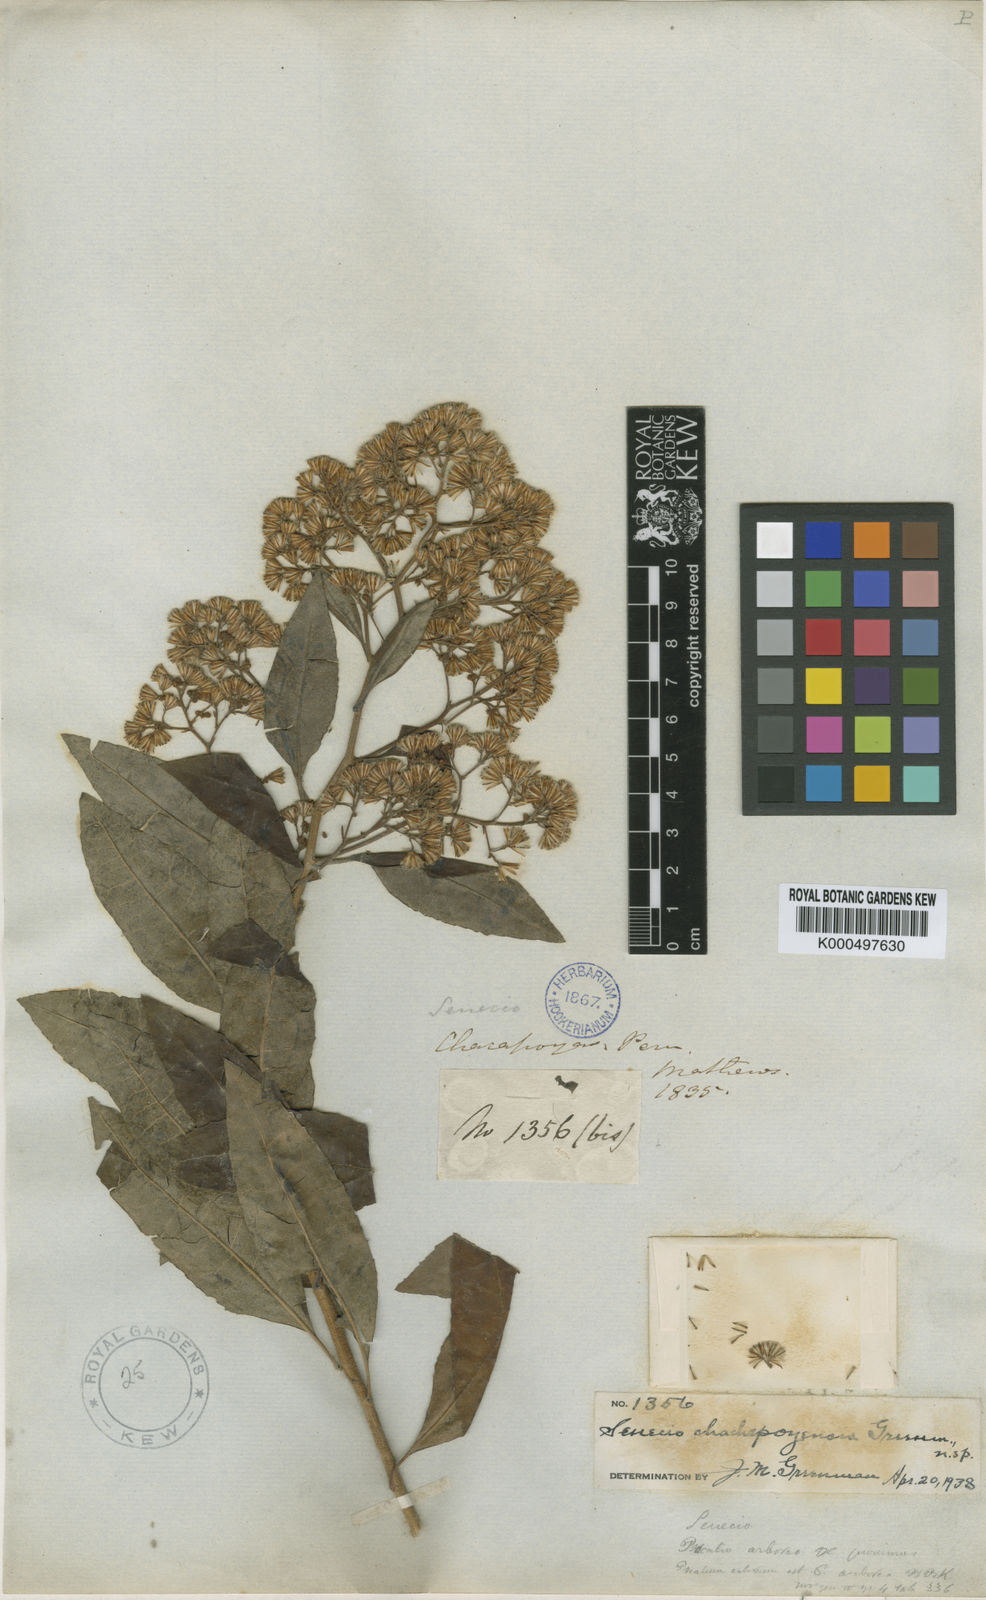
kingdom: Plantae
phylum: Tracheophyta
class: Magnoliopsida
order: Asterales
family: Asteraceae
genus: Pentacalia
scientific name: Pentacalia chachapoyensis
